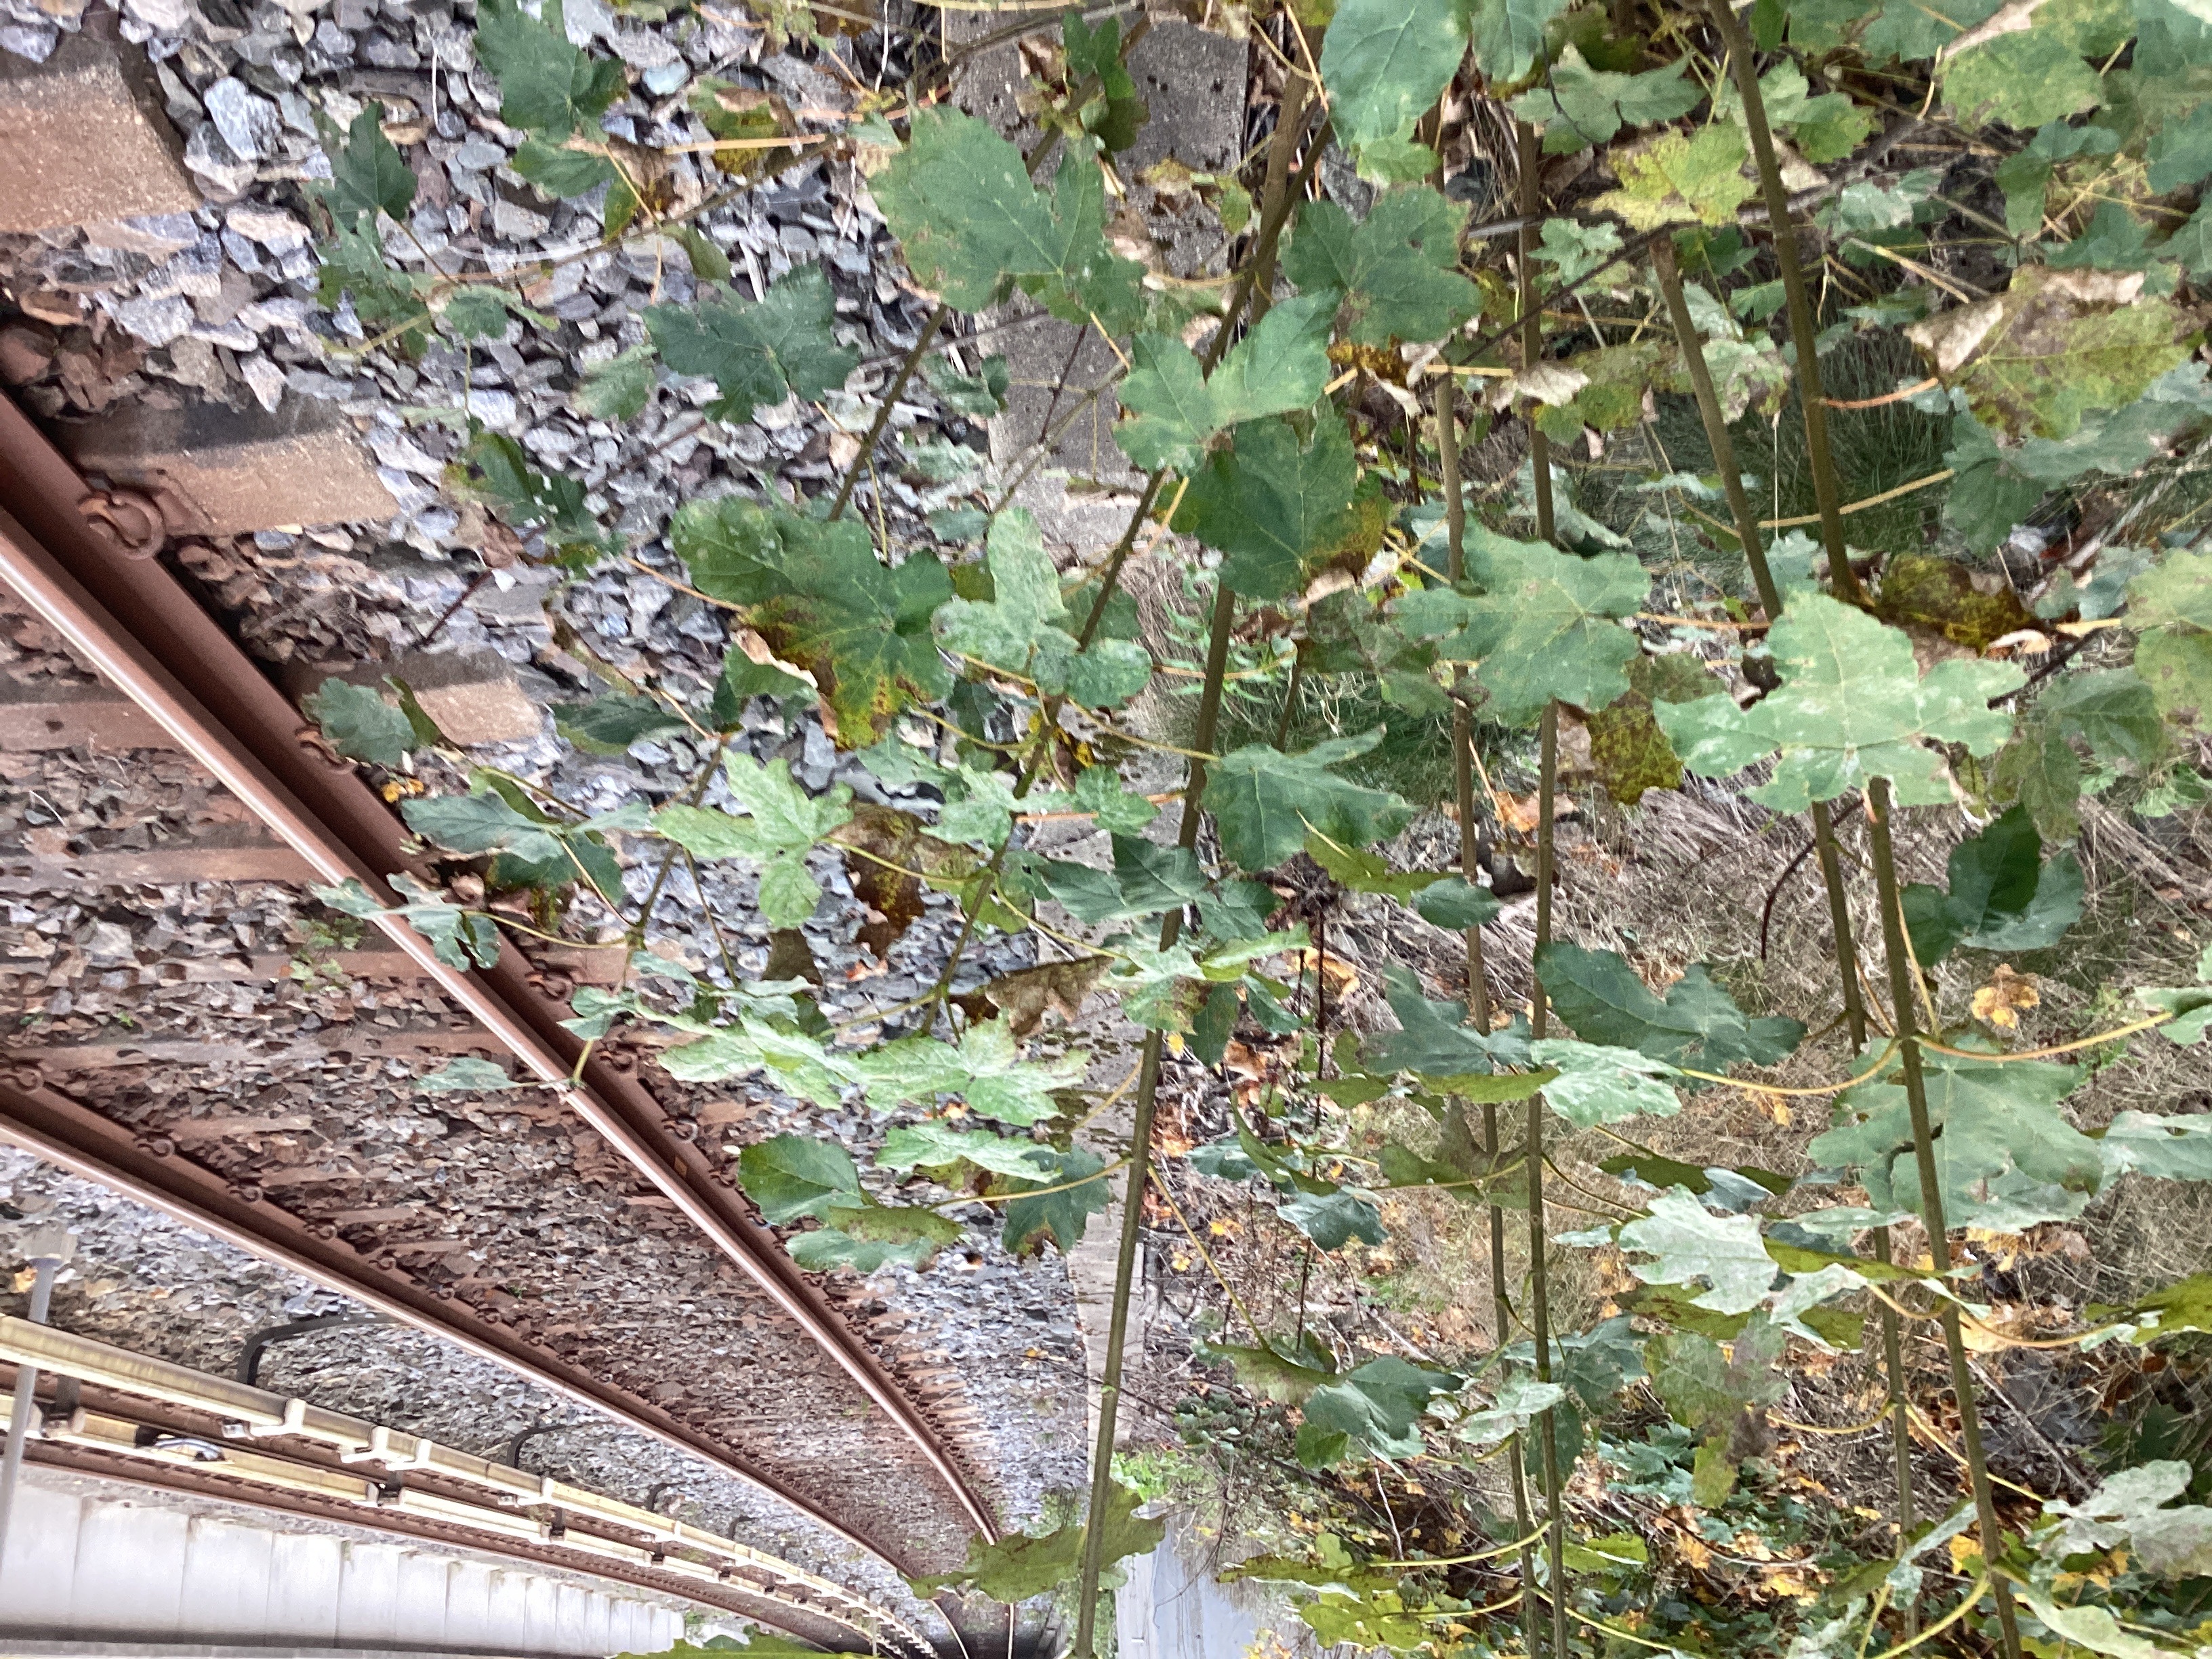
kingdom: Plantae
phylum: Tracheophyta
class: Magnoliopsida
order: Sapindales
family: Sapindaceae
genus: Acer
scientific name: Acer pseudoplatanus
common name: platanlønn
